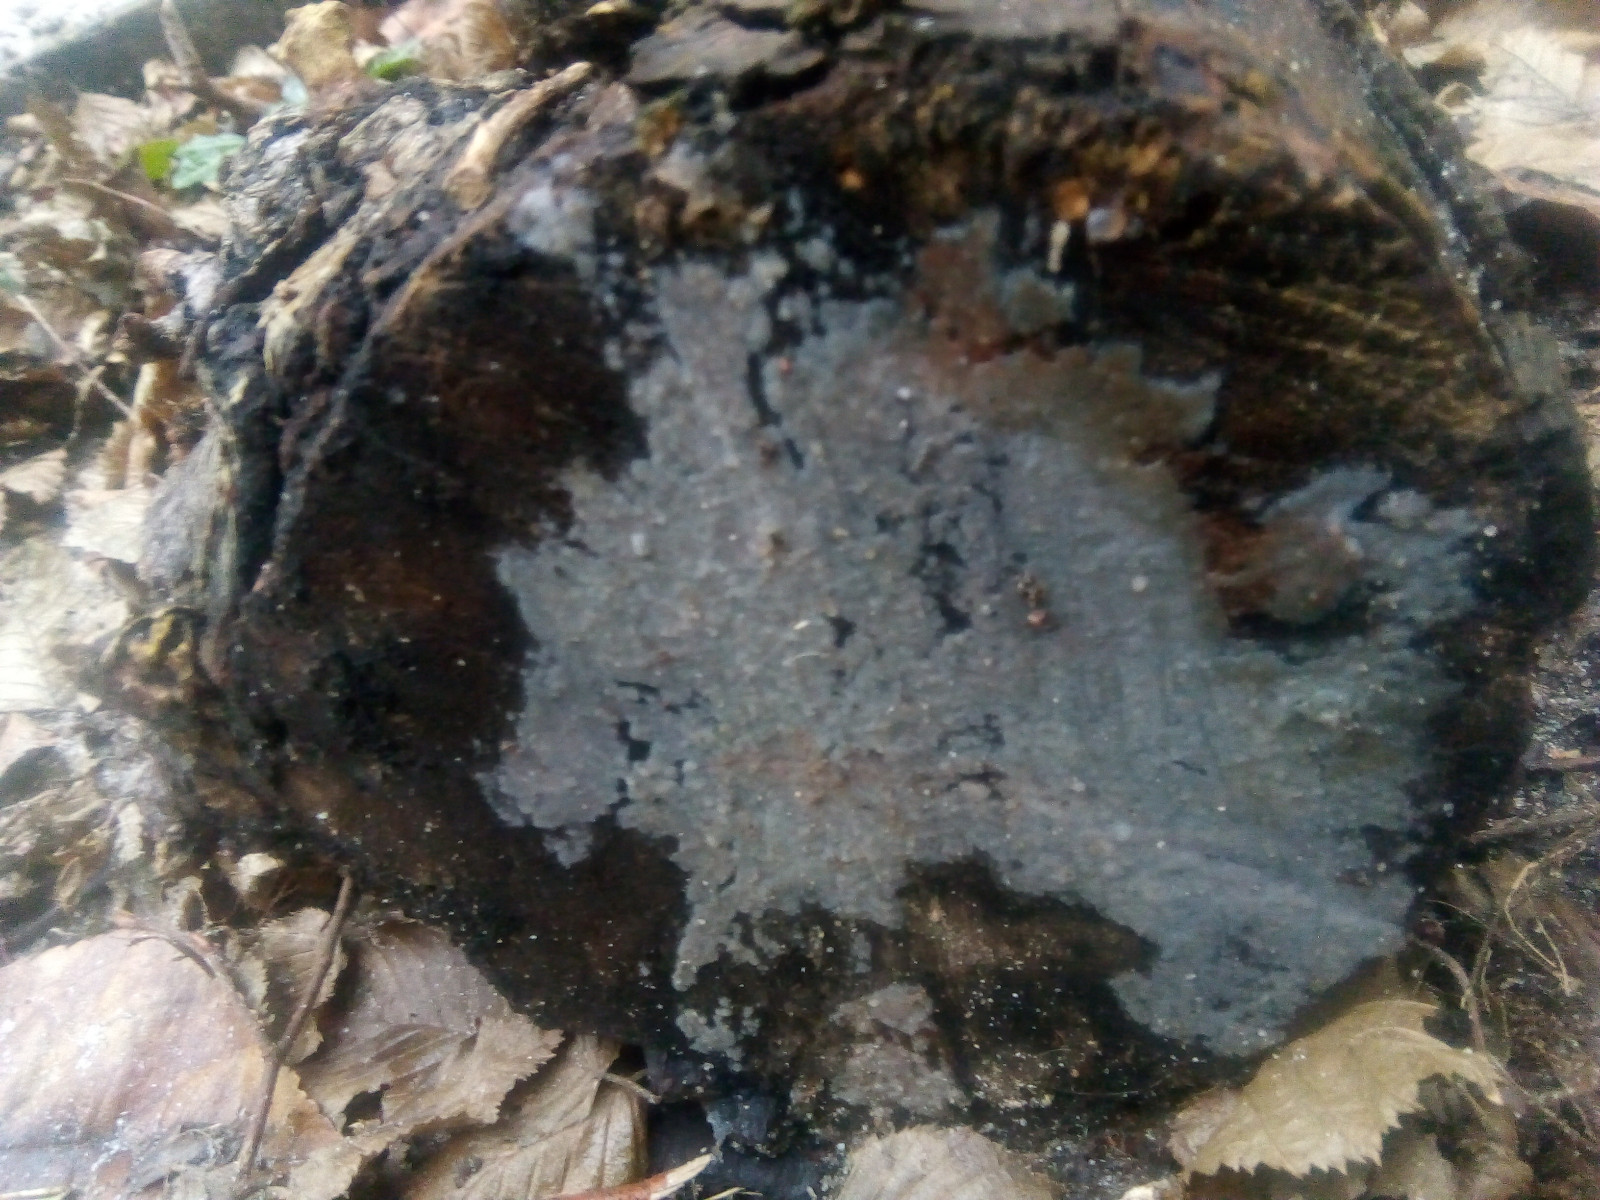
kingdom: Fungi
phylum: Basidiomycota
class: Tremellomycetes
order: Tremellales
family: Exidiaceae
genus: Exidiopsis
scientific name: Exidiopsis effusa
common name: smuk bævrehinde
